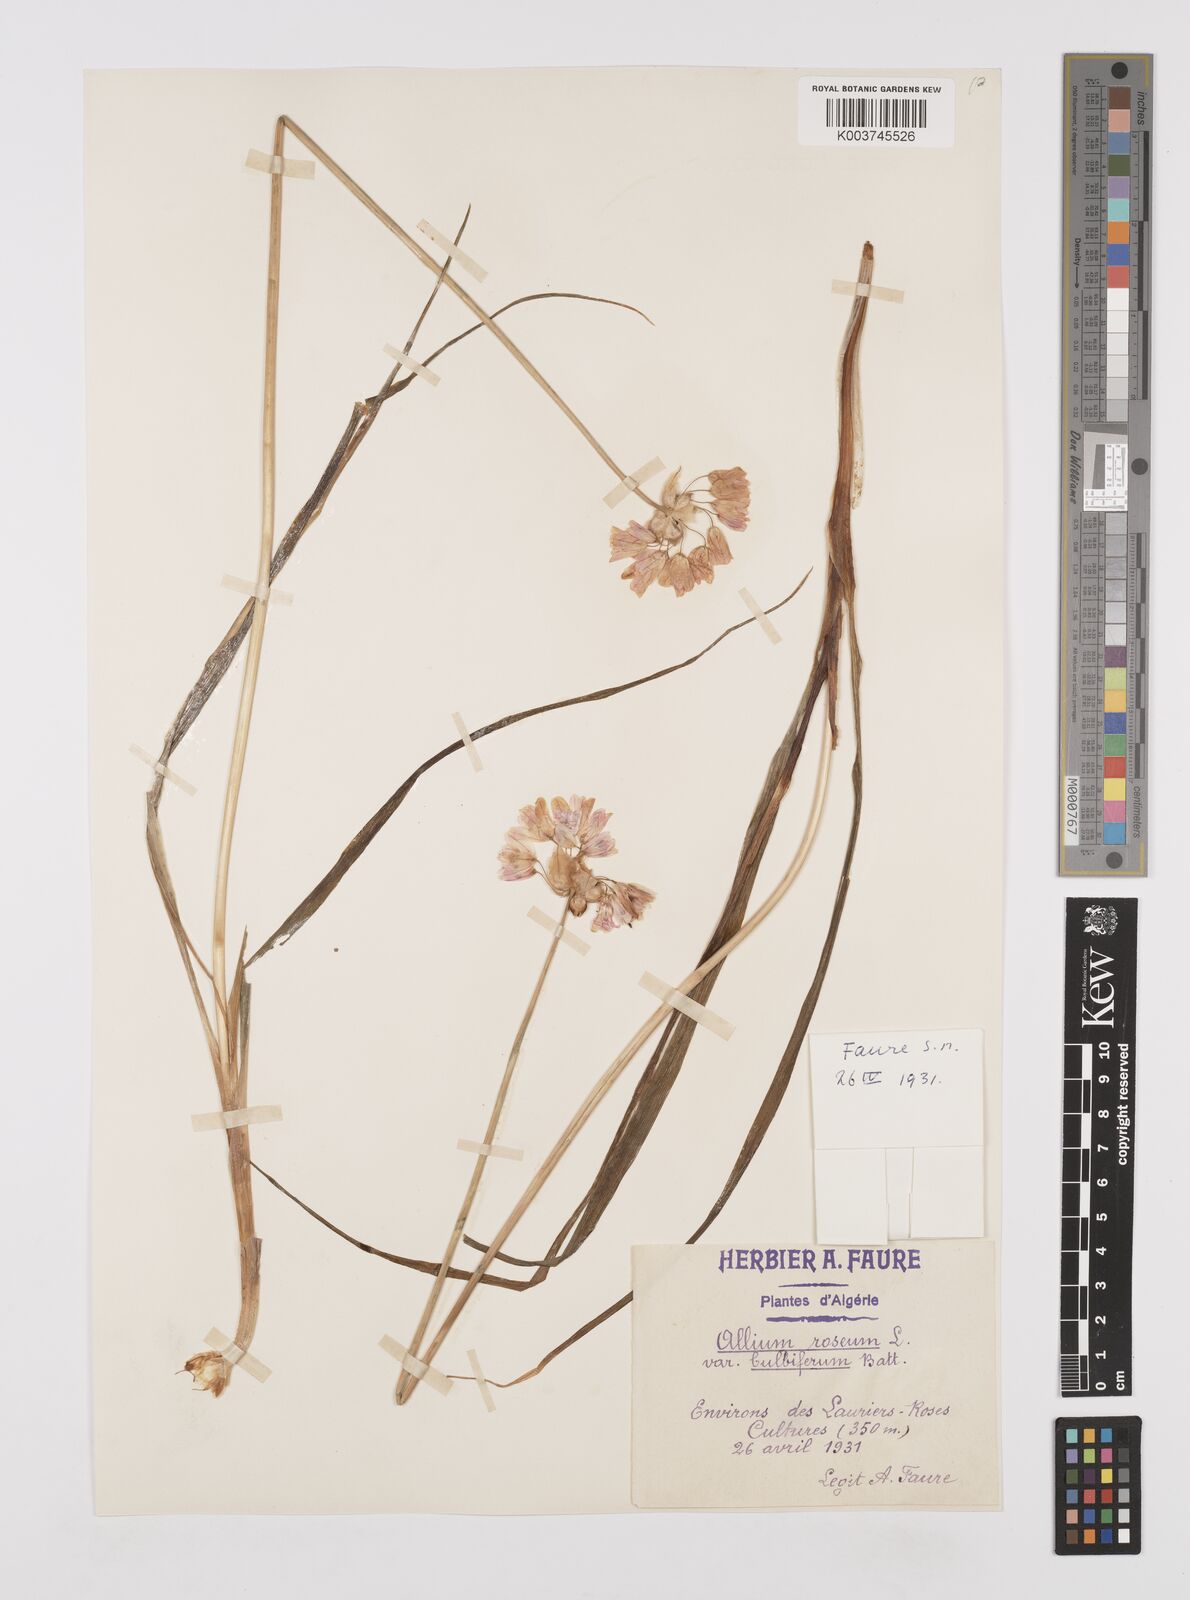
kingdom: Plantae
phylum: Tracheophyta
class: Liliopsida
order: Asparagales
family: Amaryllidaceae
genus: Allium
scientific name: Allium roseum
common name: Rosy garlic
